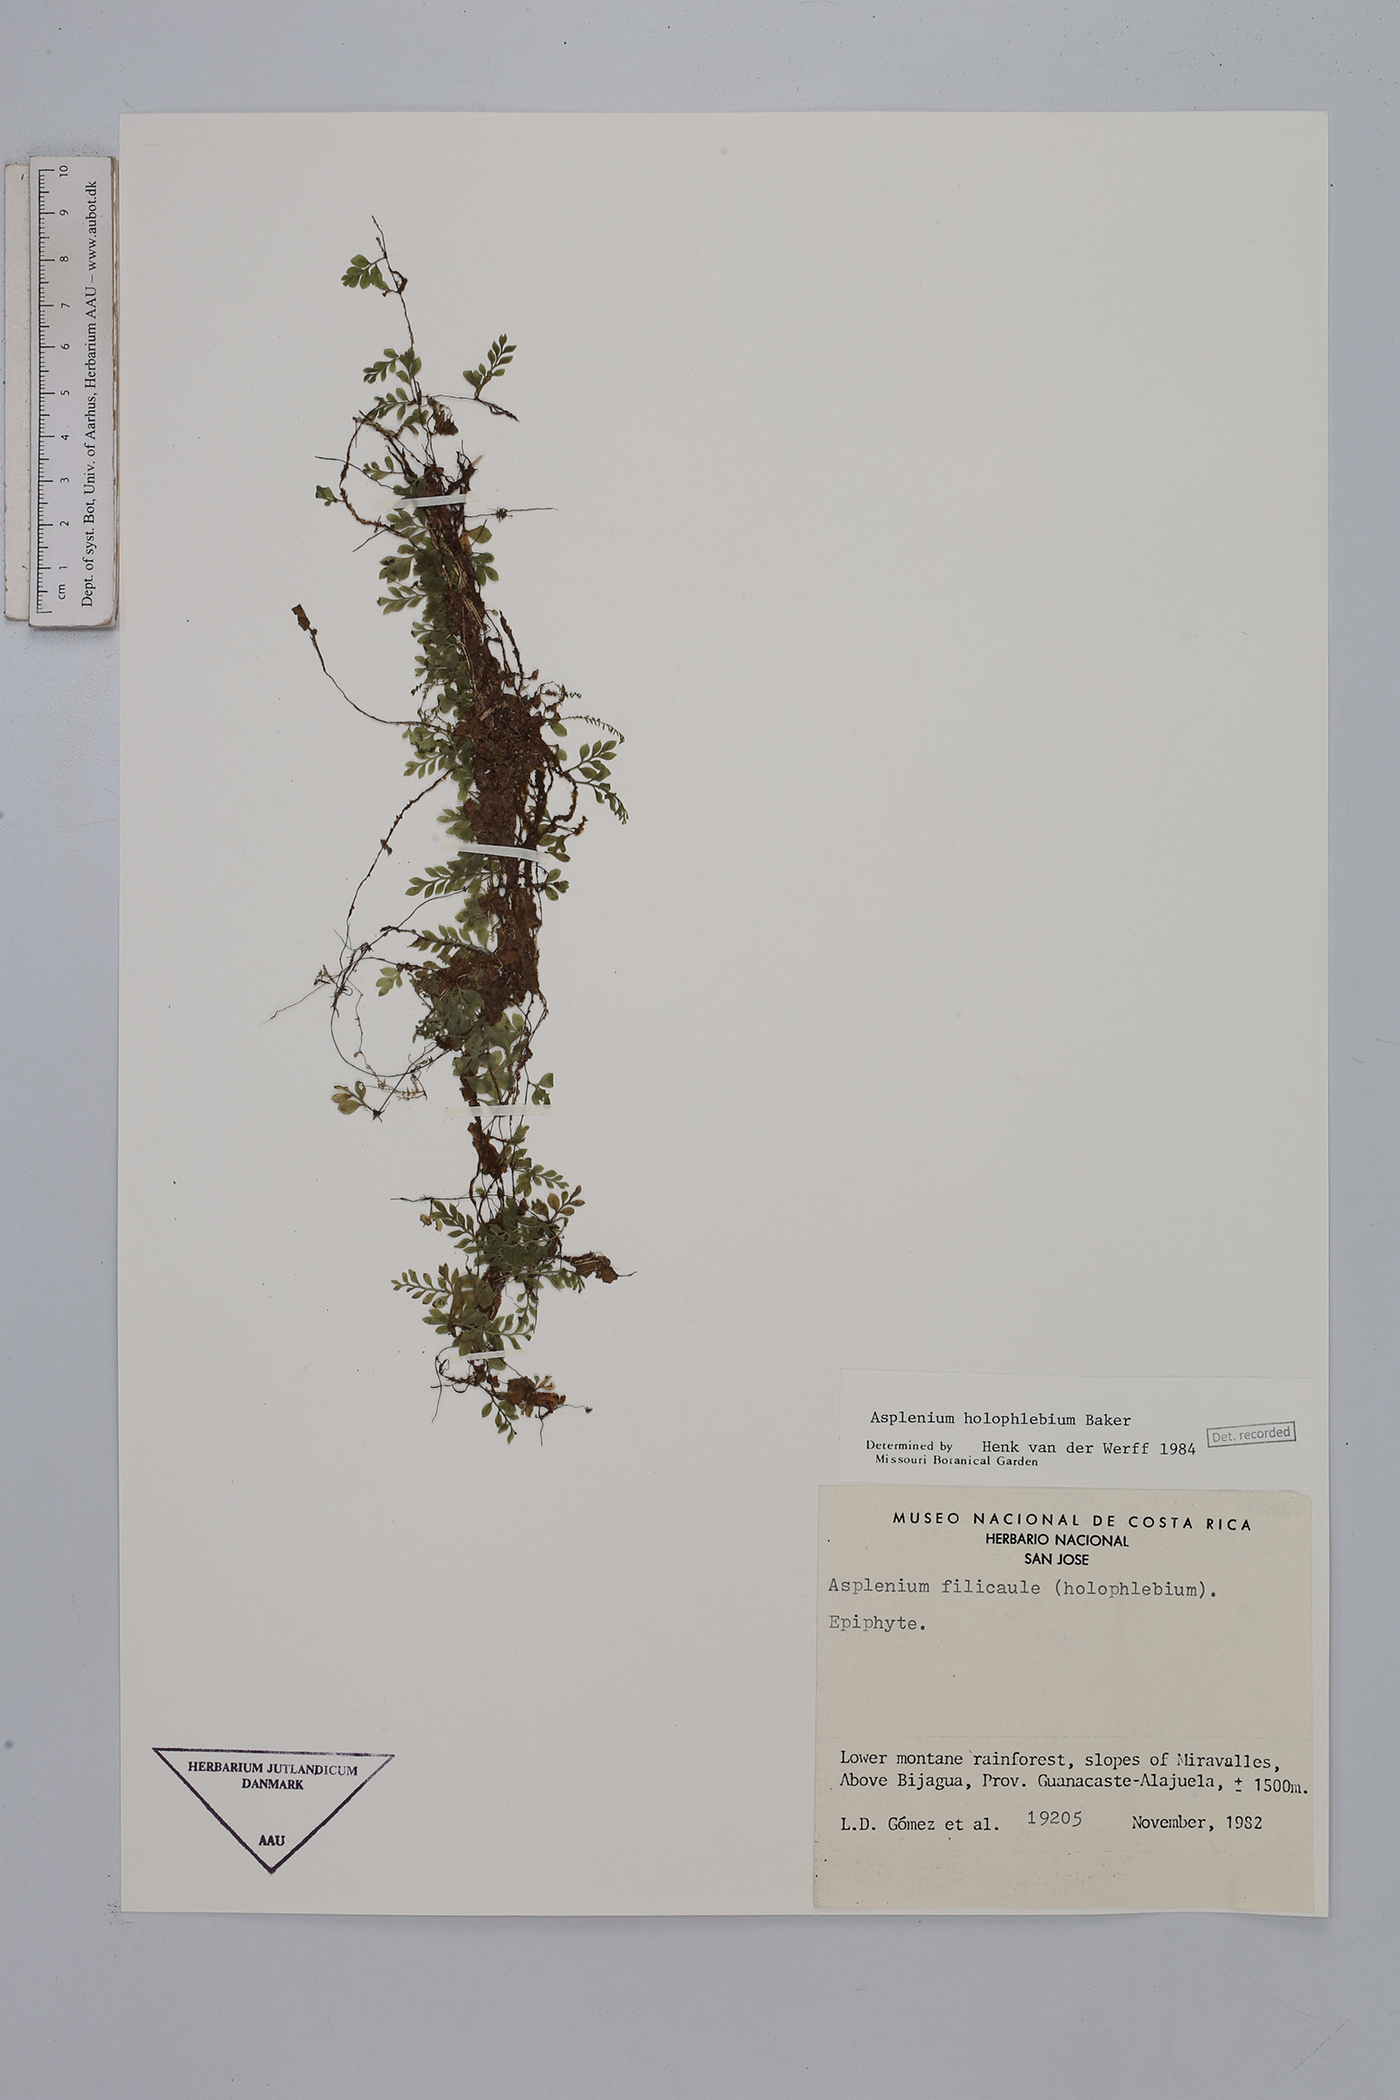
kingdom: Plantae
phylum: Tracheophyta
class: Polypodiopsida
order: Polypodiales
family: Aspleniaceae
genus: Asplenium
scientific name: Asplenium holophlebium
